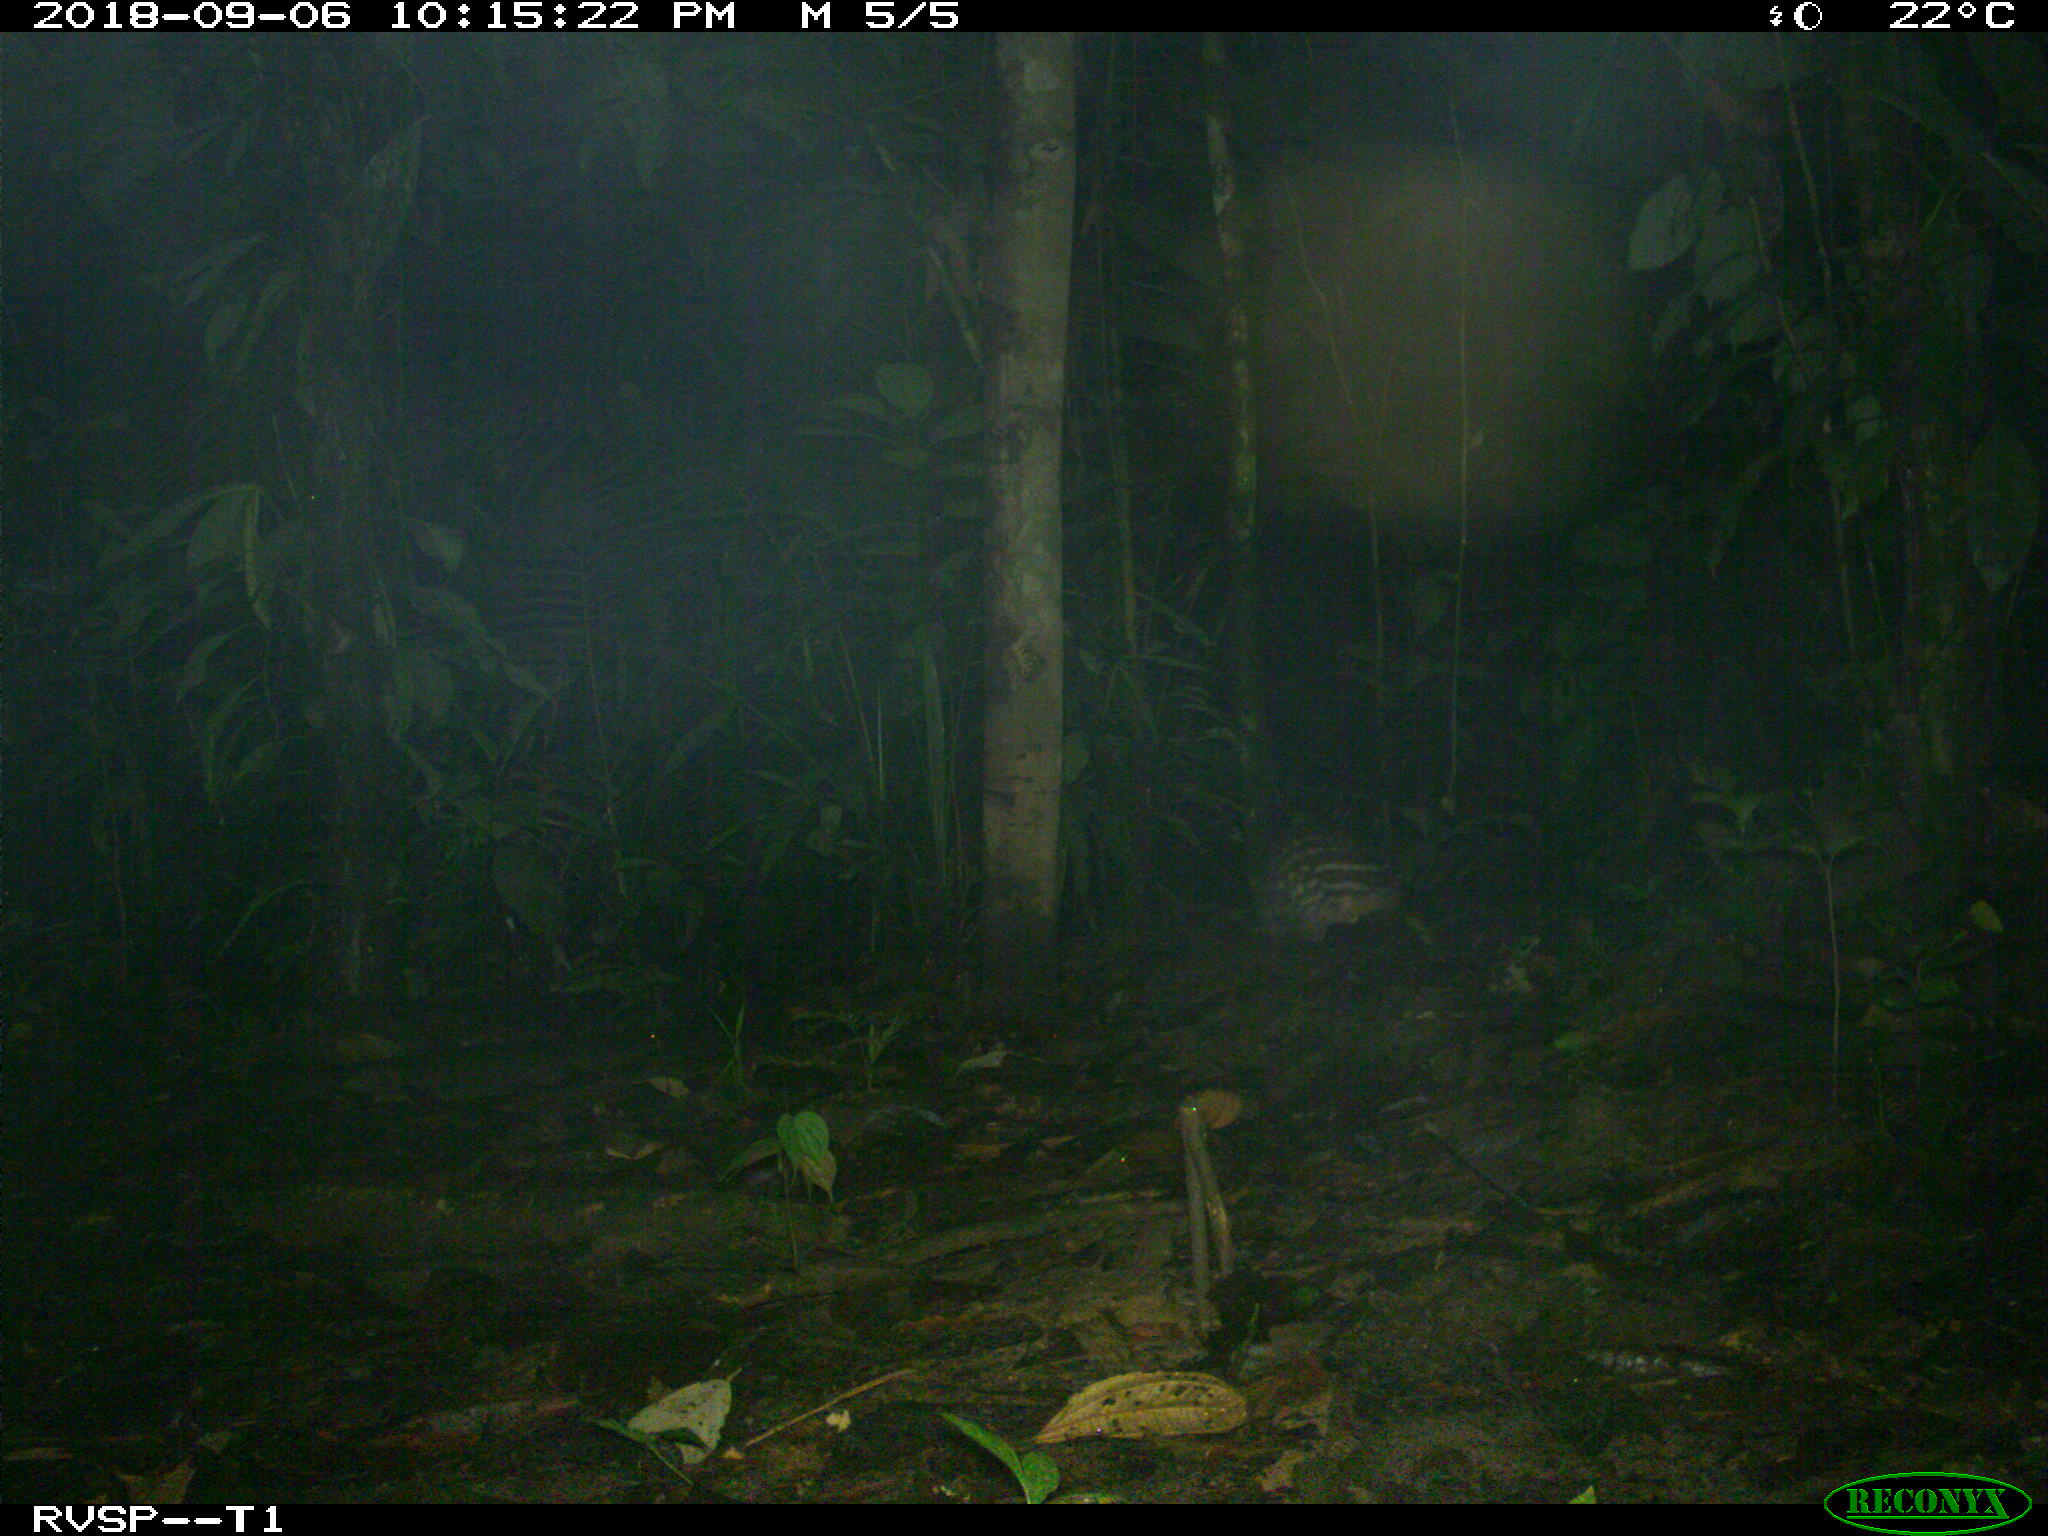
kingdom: Animalia
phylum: Chordata
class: Mammalia
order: Rodentia
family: Cuniculidae
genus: Cuniculus
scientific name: Cuniculus paca
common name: Lowland paca
